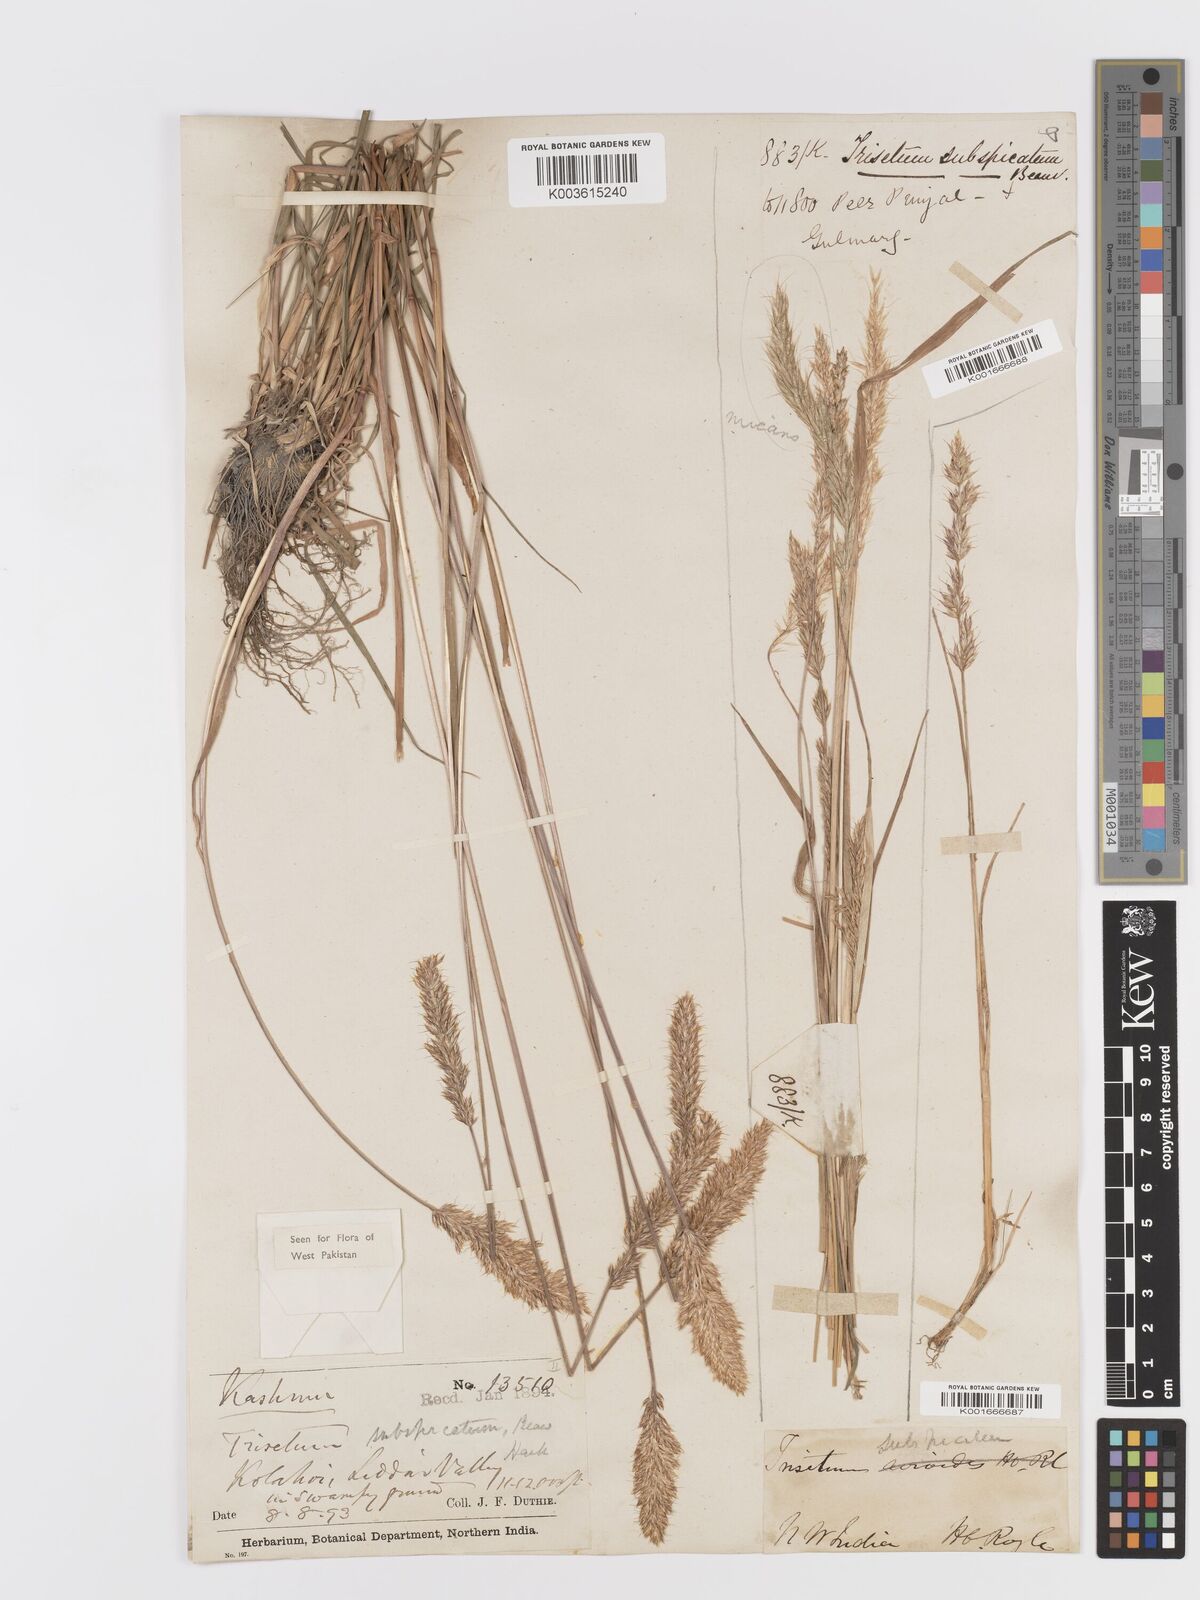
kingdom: Plantae
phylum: Tracheophyta
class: Liliopsida
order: Poales
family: Poaceae
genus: Koeleria
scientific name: Koeleria spicata
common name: Mountain trisetum
